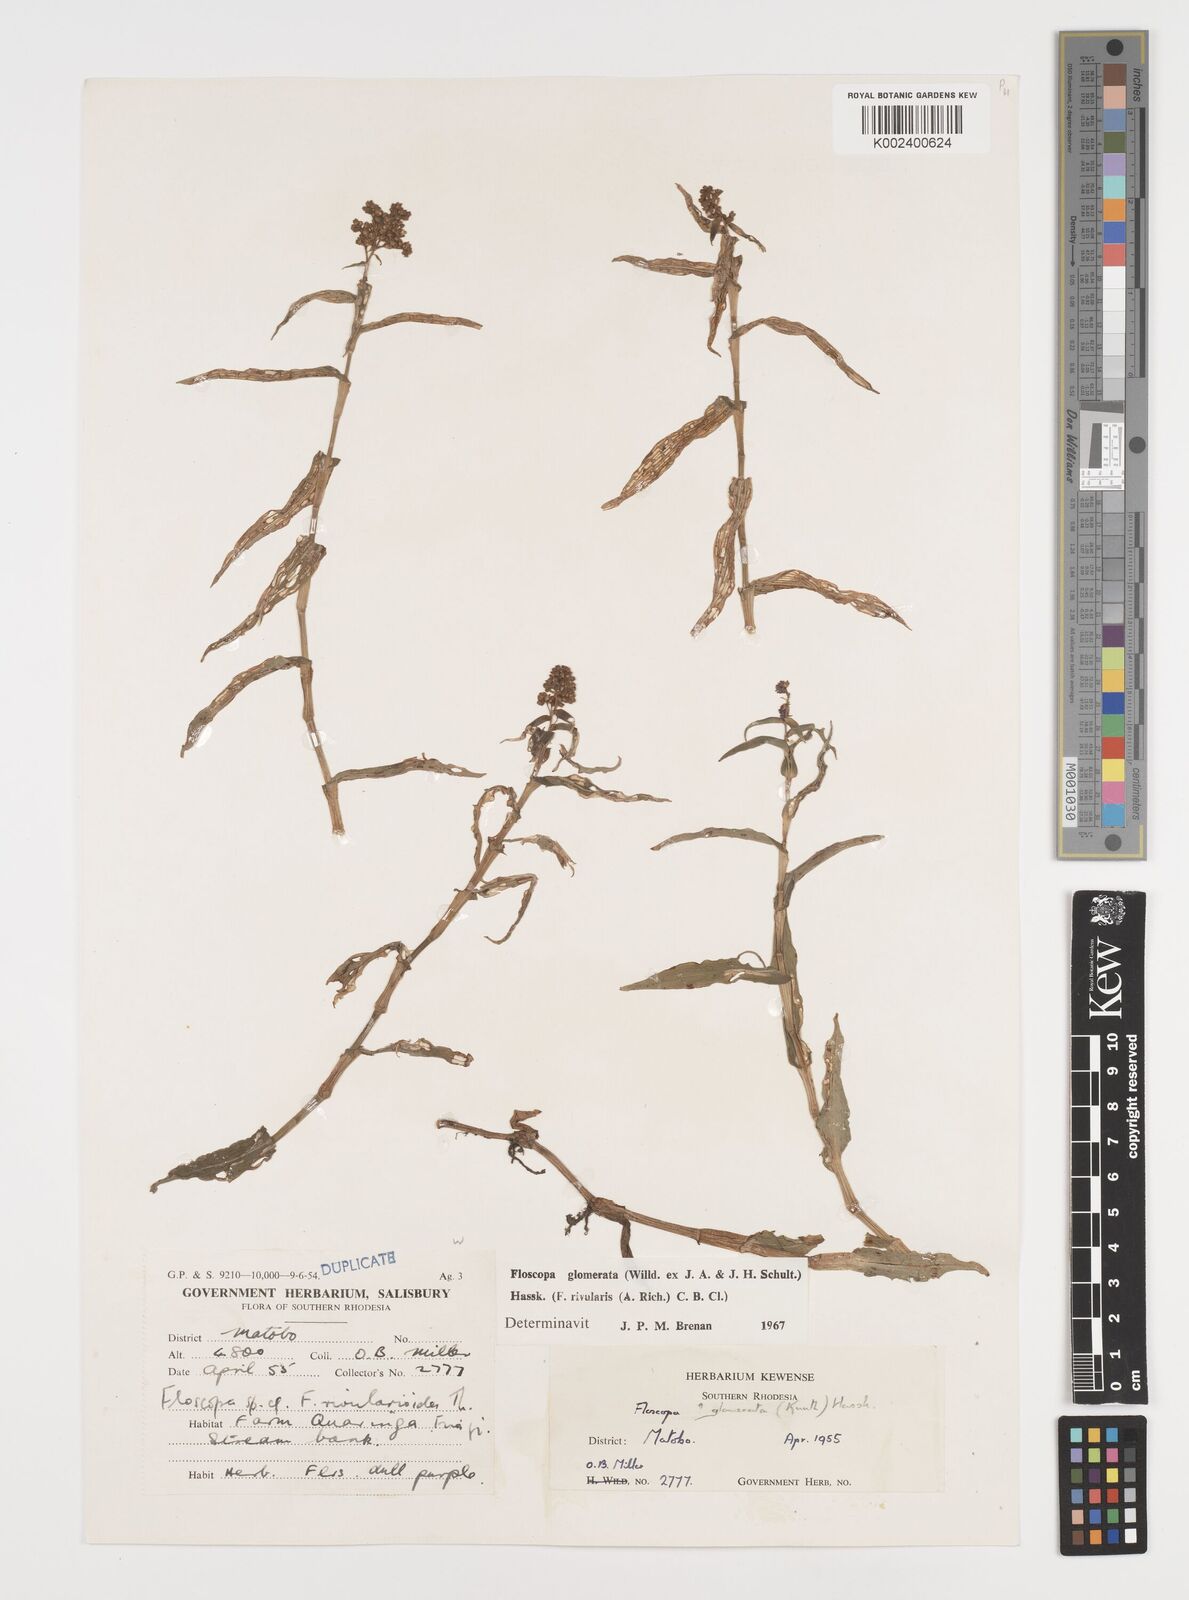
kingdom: Plantae
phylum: Tracheophyta
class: Liliopsida
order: Commelinales
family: Commelinaceae
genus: Floscopa
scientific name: Floscopa glomerata
